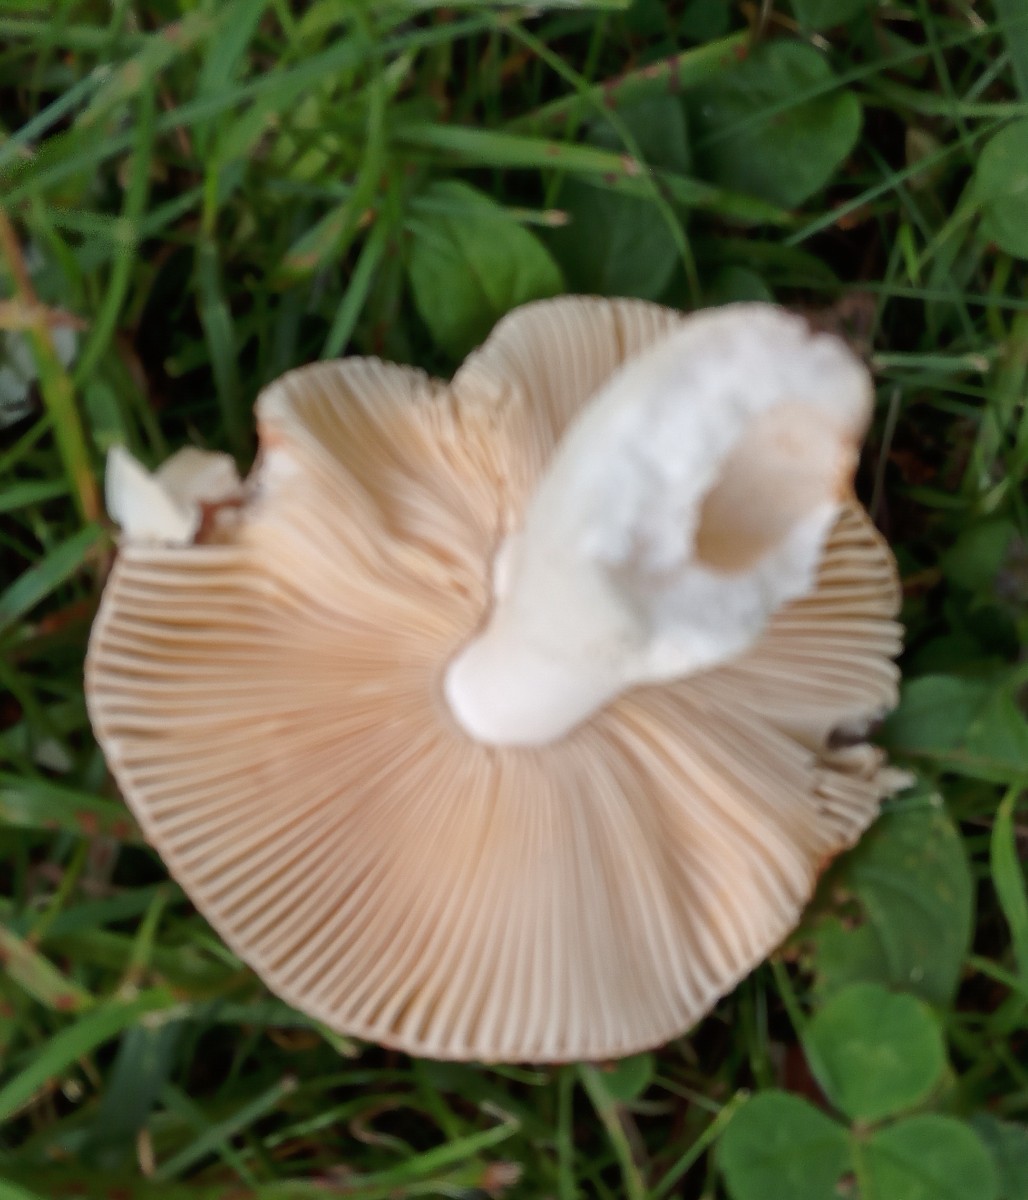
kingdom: Fungi
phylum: Basidiomycota
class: Agaricomycetes
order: Russulales
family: Russulaceae
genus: Russula
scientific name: Russula
